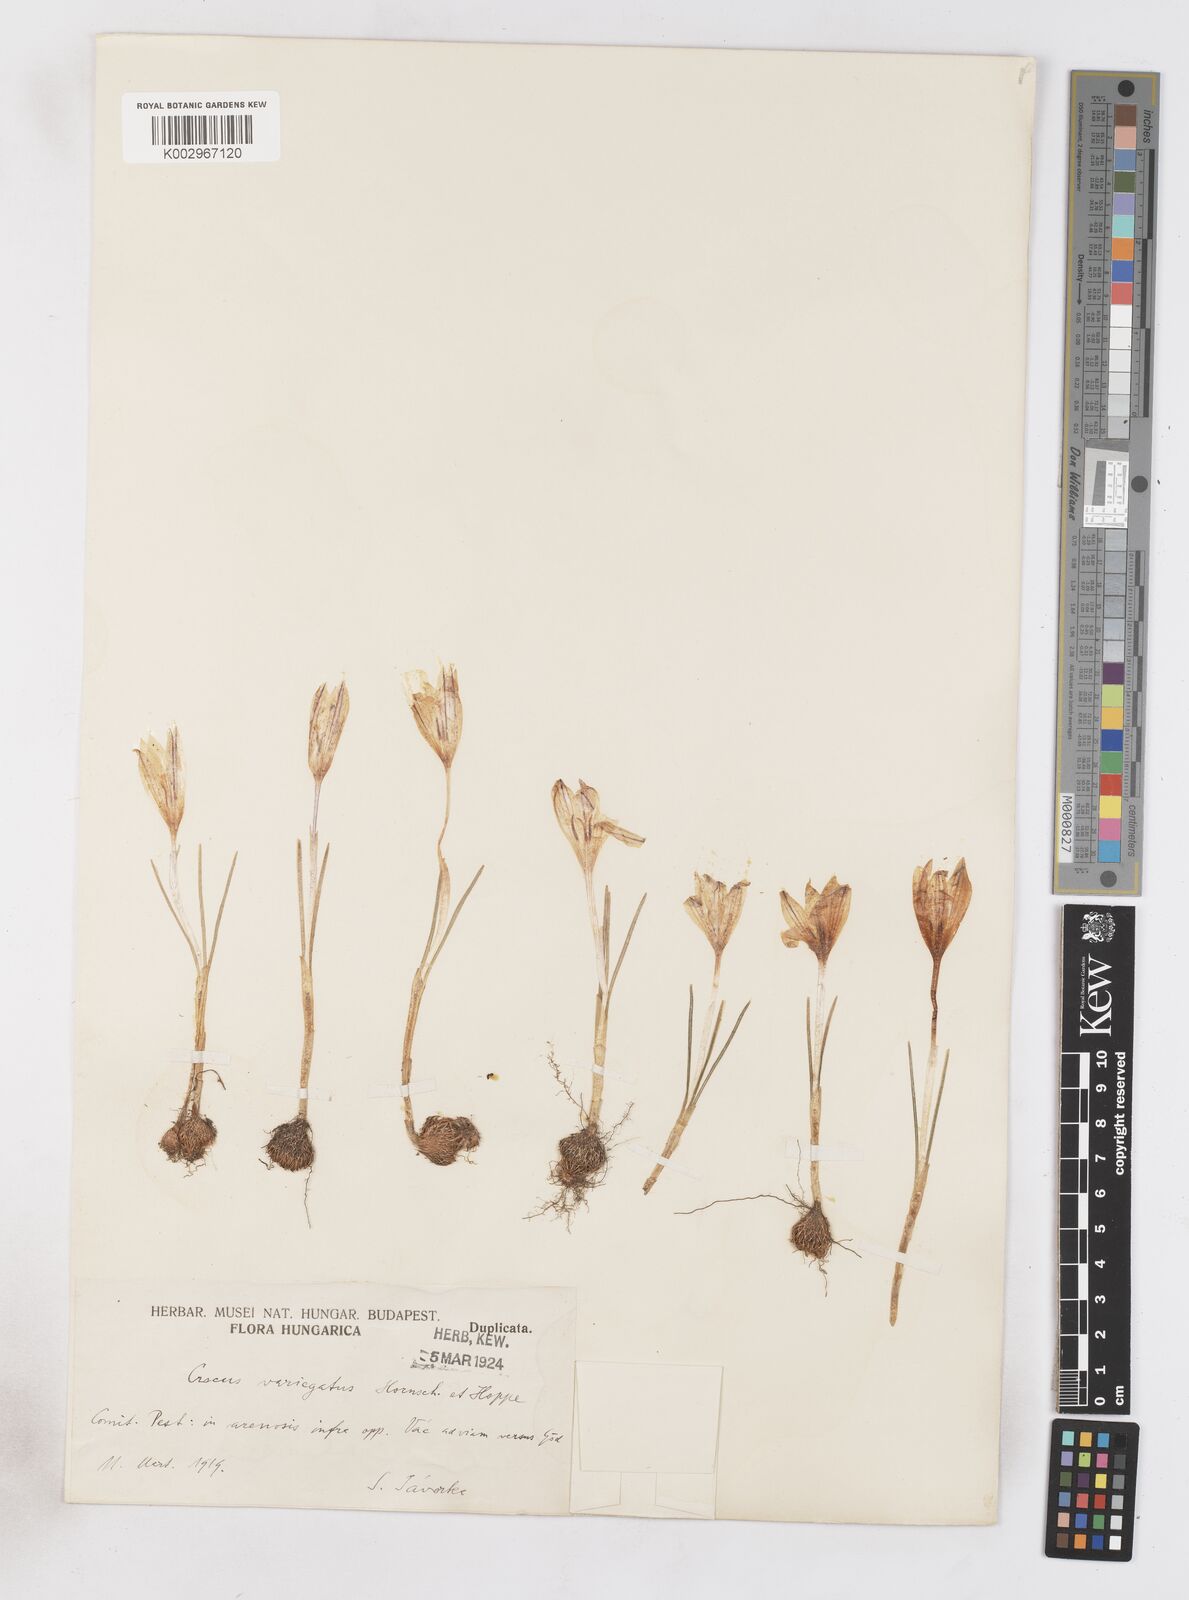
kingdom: Plantae
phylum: Tracheophyta
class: Liliopsida
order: Asparagales
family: Iridaceae
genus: Crocus
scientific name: Crocus reticulatus
